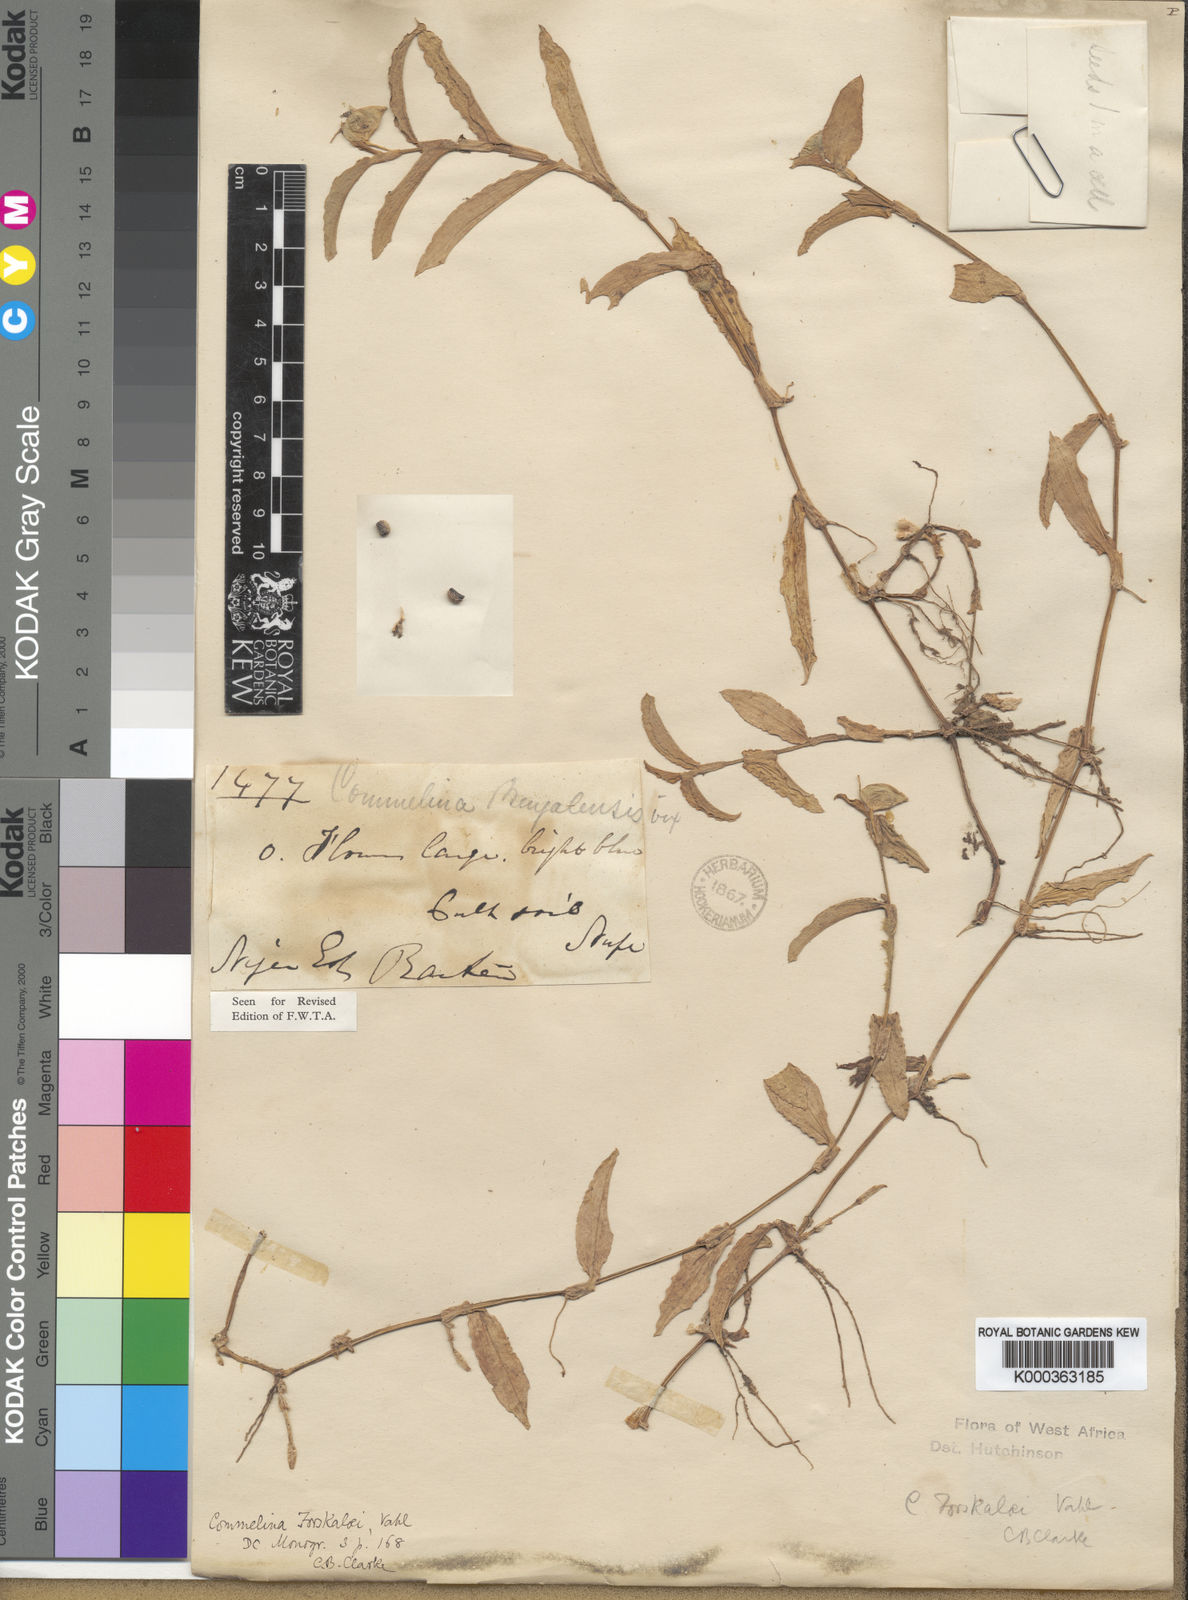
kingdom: Plantae
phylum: Tracheophyta
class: Liliopsida
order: Commelinales
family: Commelinaceae
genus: Commelina
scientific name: Commelina
